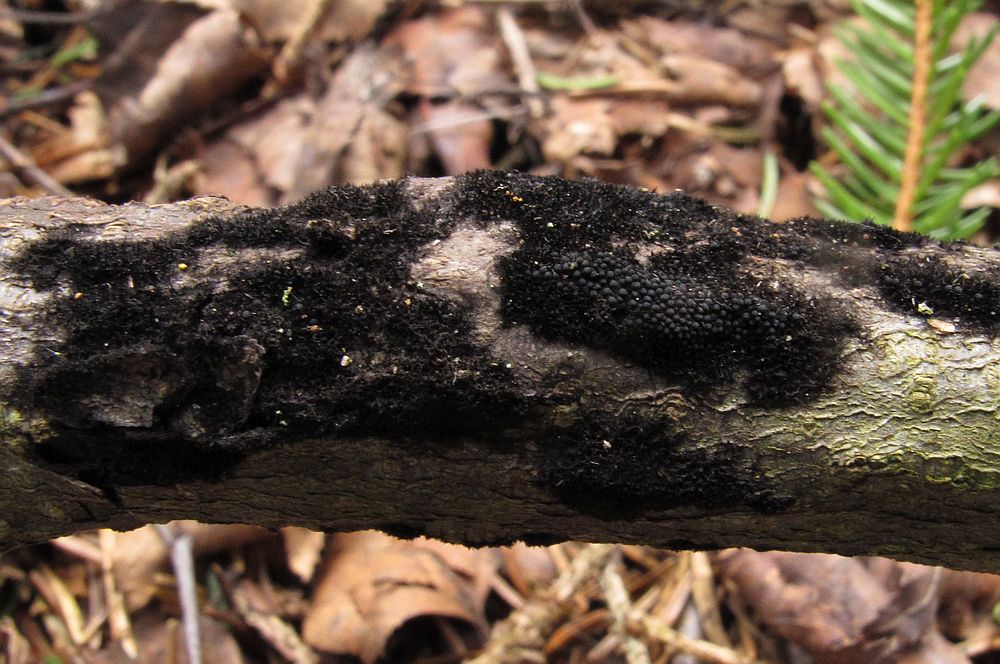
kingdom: Fungi
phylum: Ascomycota
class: Sordariomycetes
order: Coronophorales
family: Chaetosphaerellaceae
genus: Chaetosphaerella
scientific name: Chaetosphaerella phaeostroma
